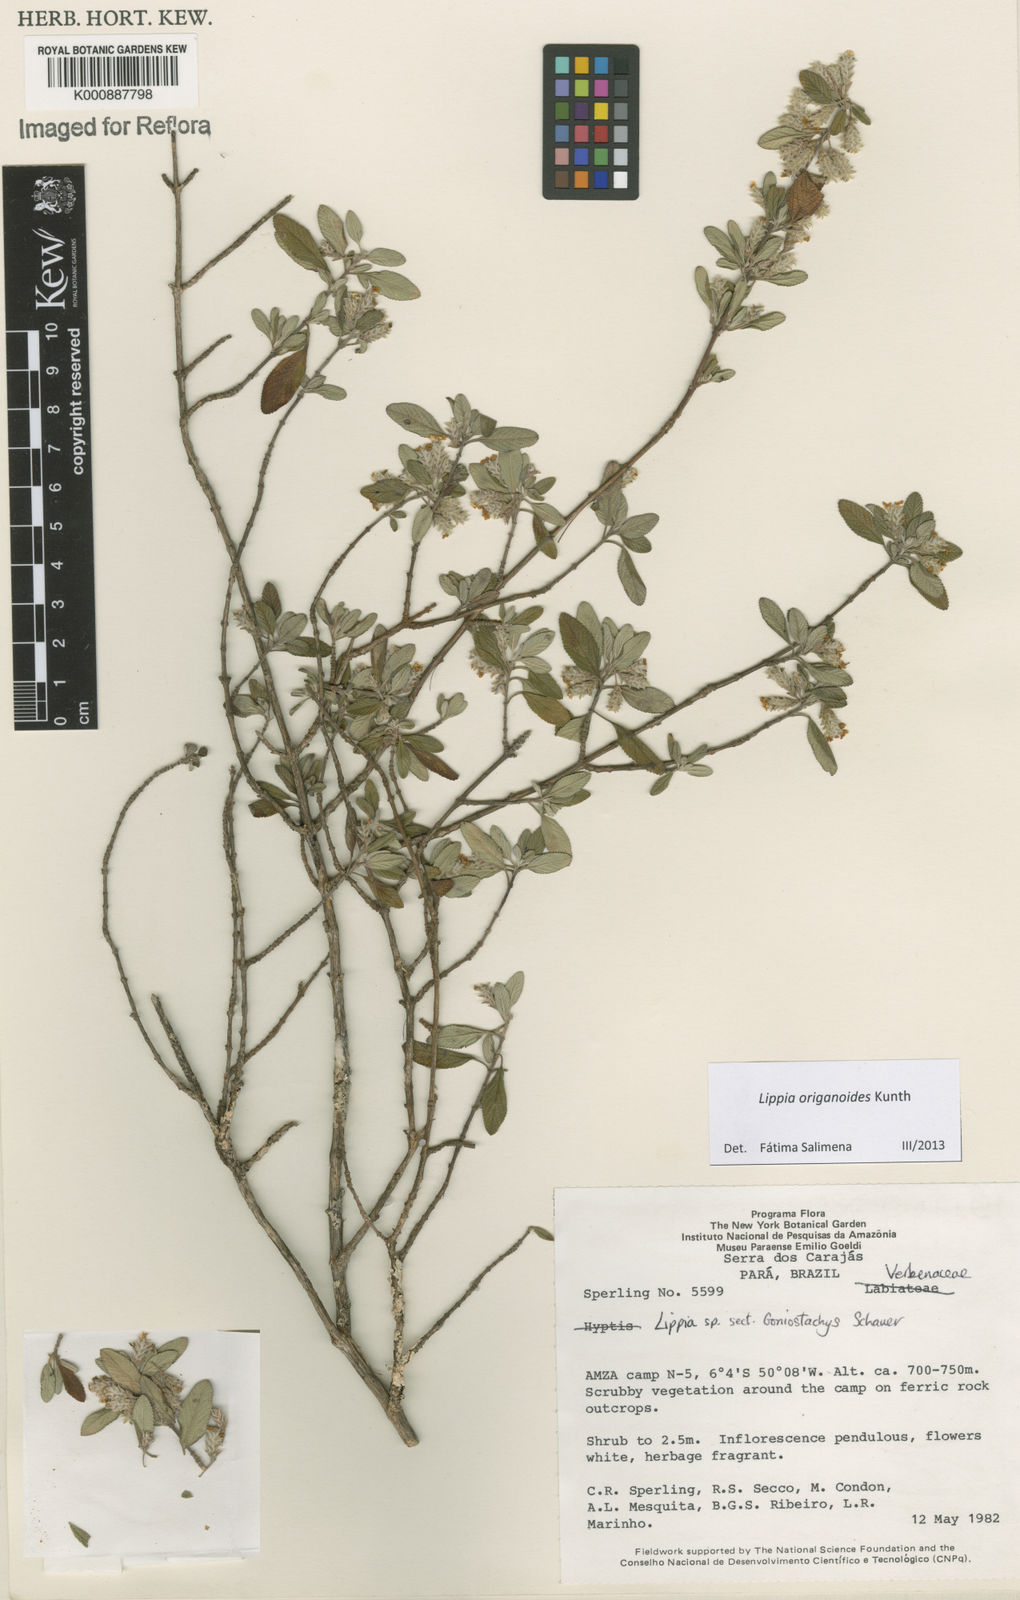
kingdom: Plantae
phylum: Tracheophyta
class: Magnoliopsida
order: Lamiales
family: Verbenaceae
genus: Lippia
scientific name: Lippia origanoides
